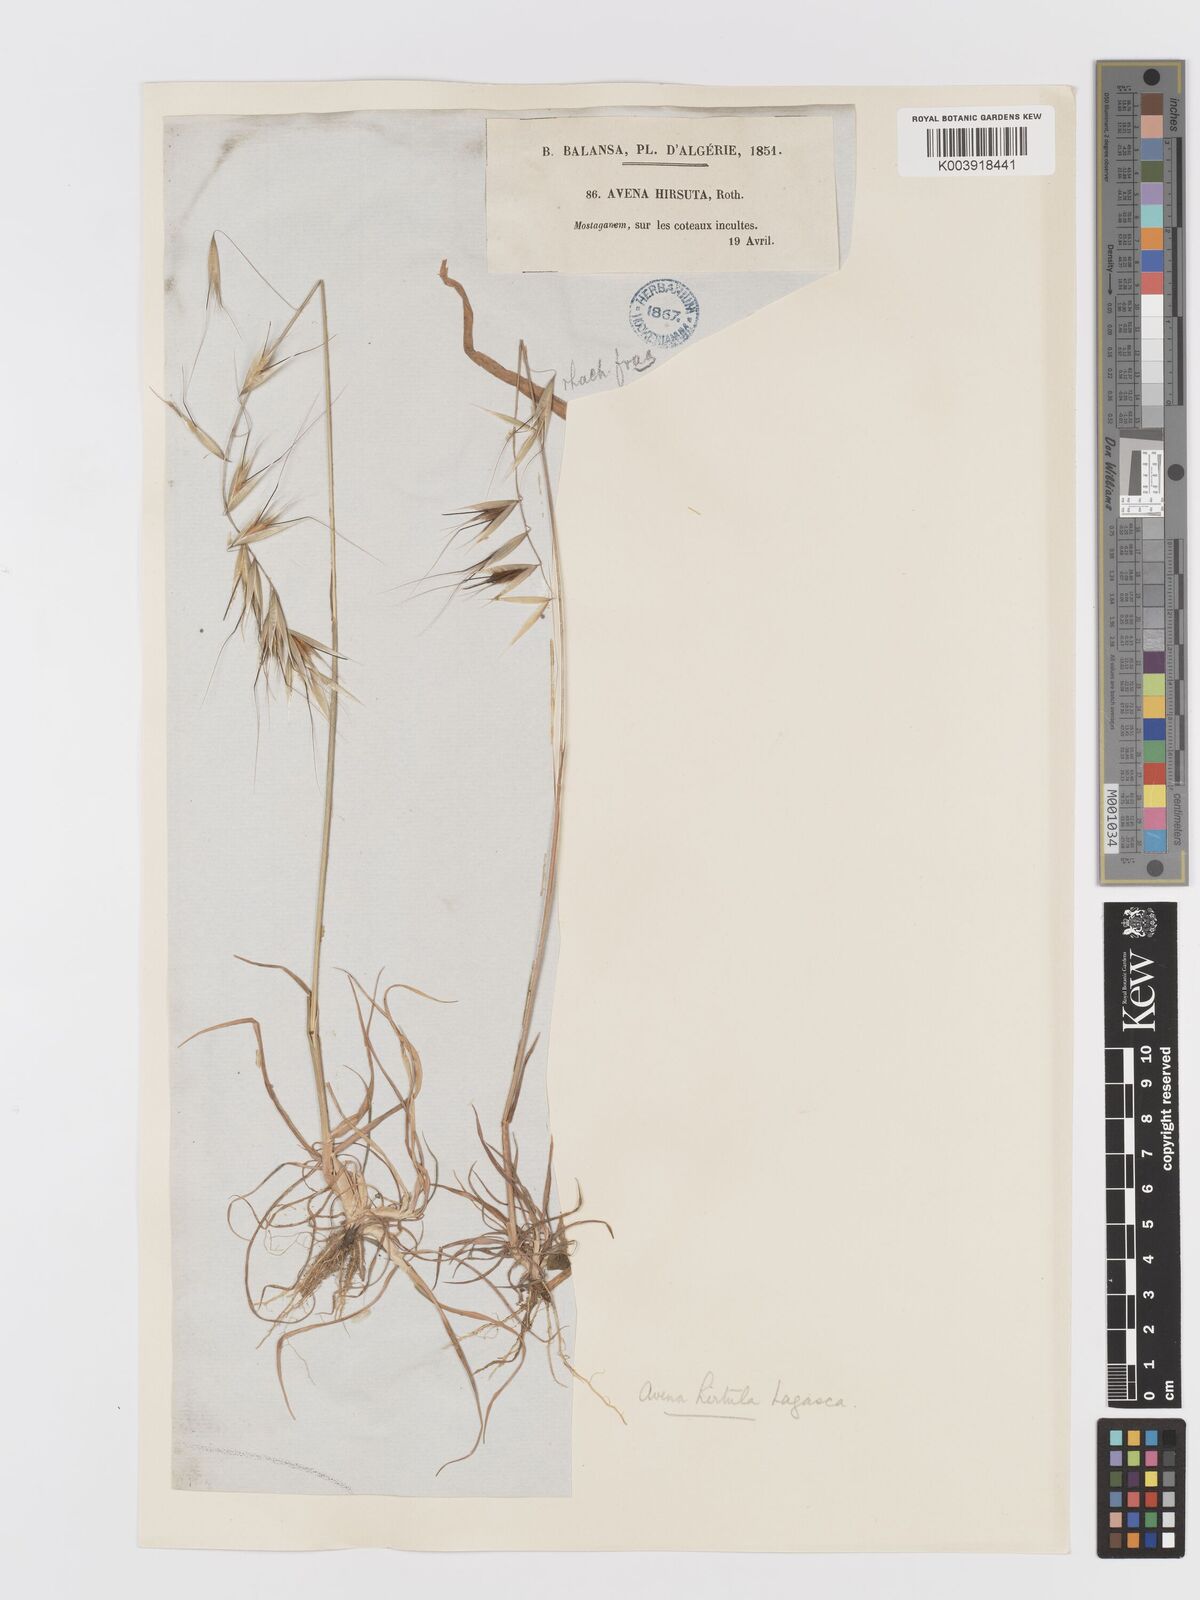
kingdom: Plantae
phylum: Tracheophyta
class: Liliopsida
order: Poales
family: Poaceae
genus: Avena
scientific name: Avena
